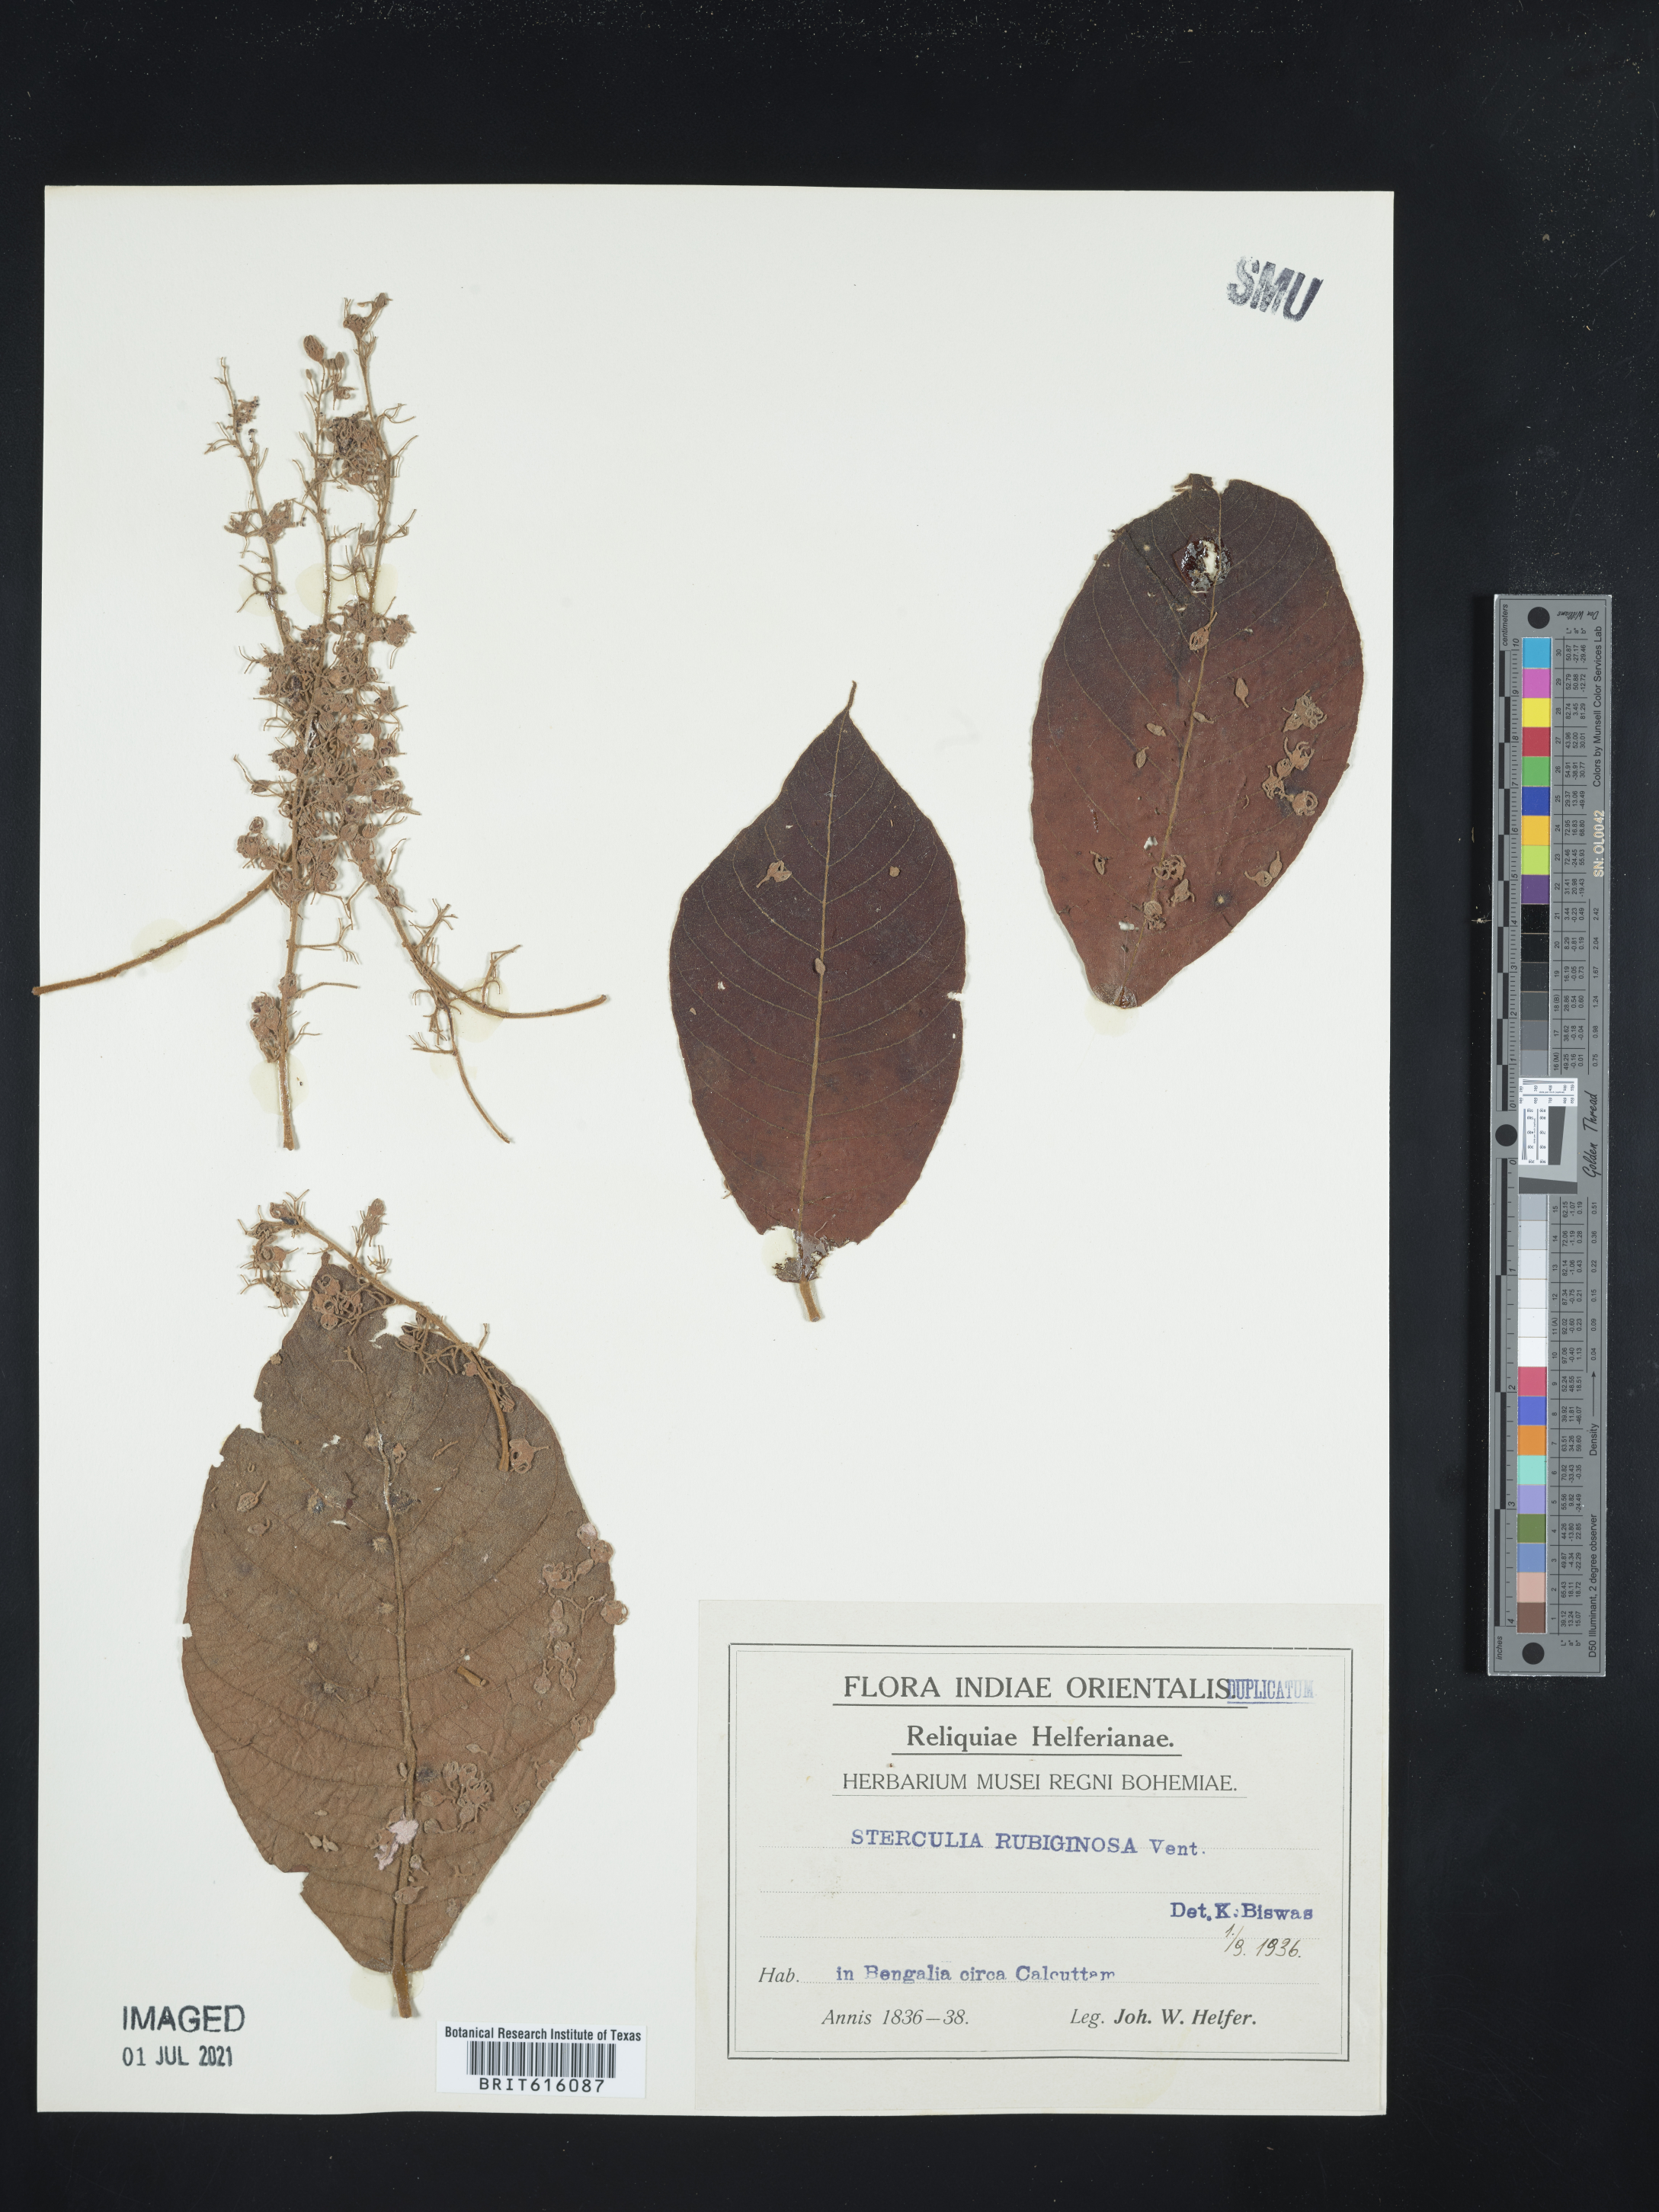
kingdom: Plantae
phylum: Tracheophyta
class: Magnoliopsida
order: Malvales
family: Malvaceae
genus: Sterculia
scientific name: Sterculia rubiginosa
